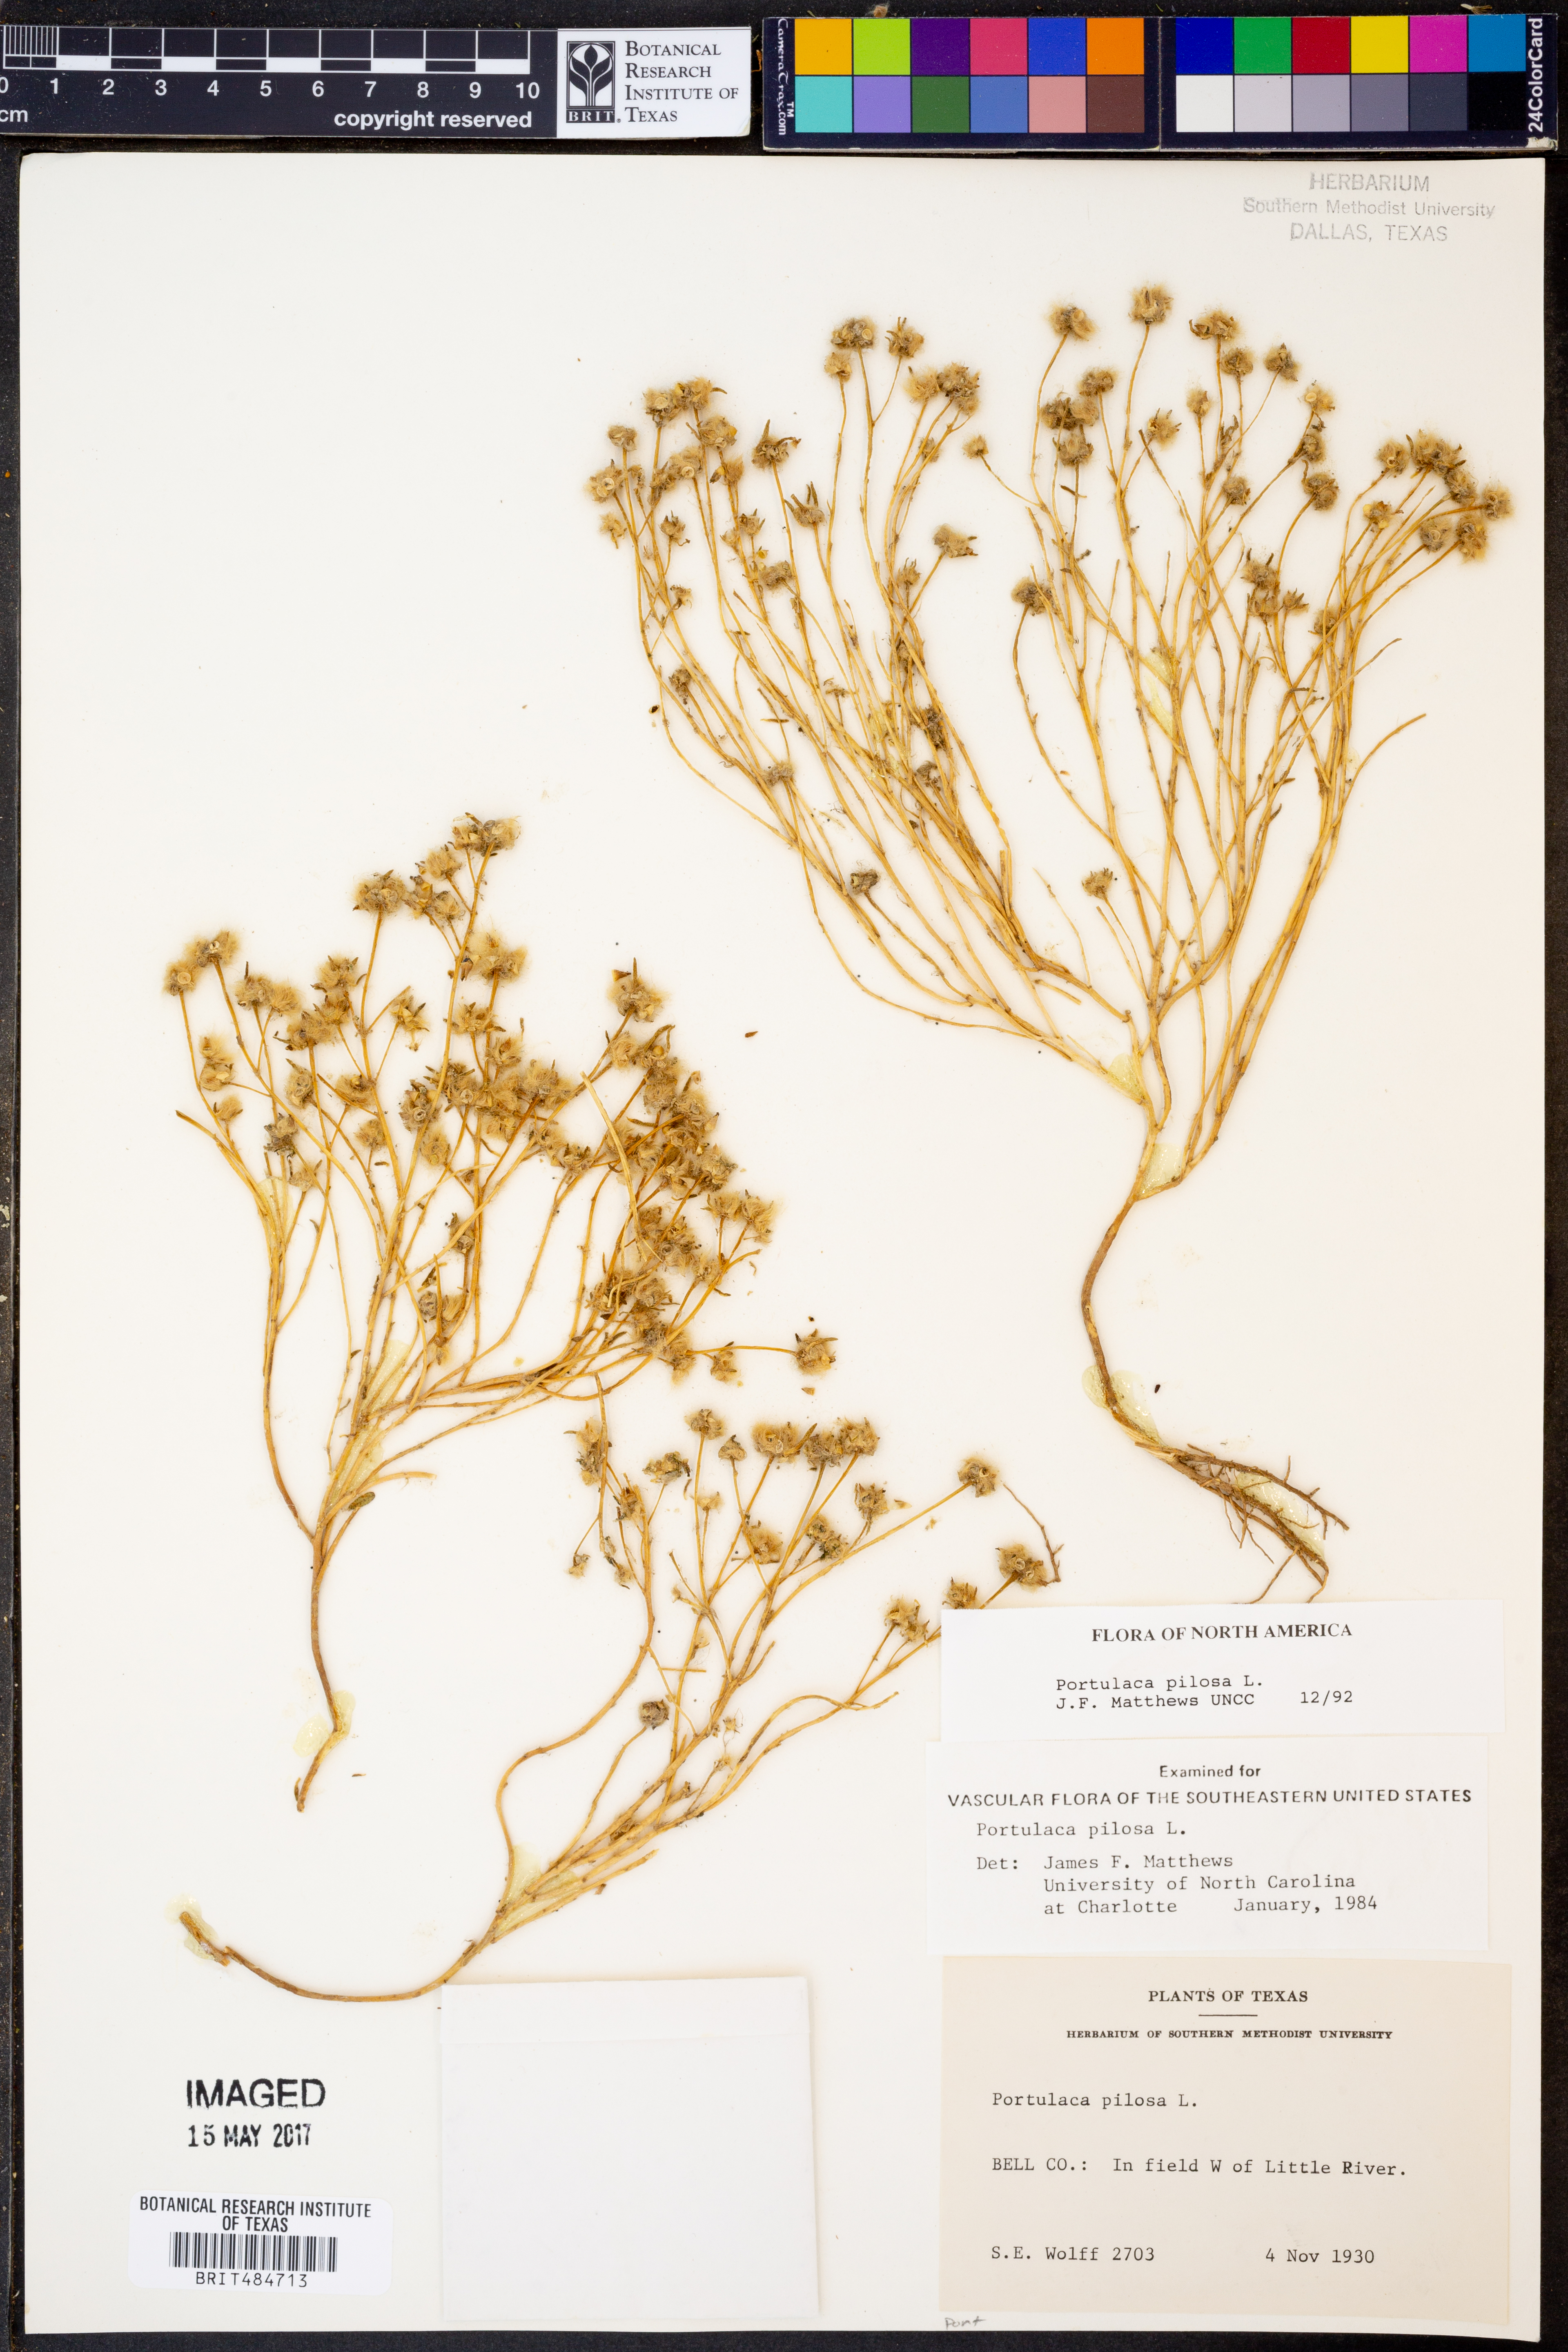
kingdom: Plantae
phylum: Tracheophyta
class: Magnoliopsida
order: Caryophyllales
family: Portulacaceae
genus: Portulaca
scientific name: Portulaca pilosa
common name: Kiss me quick
